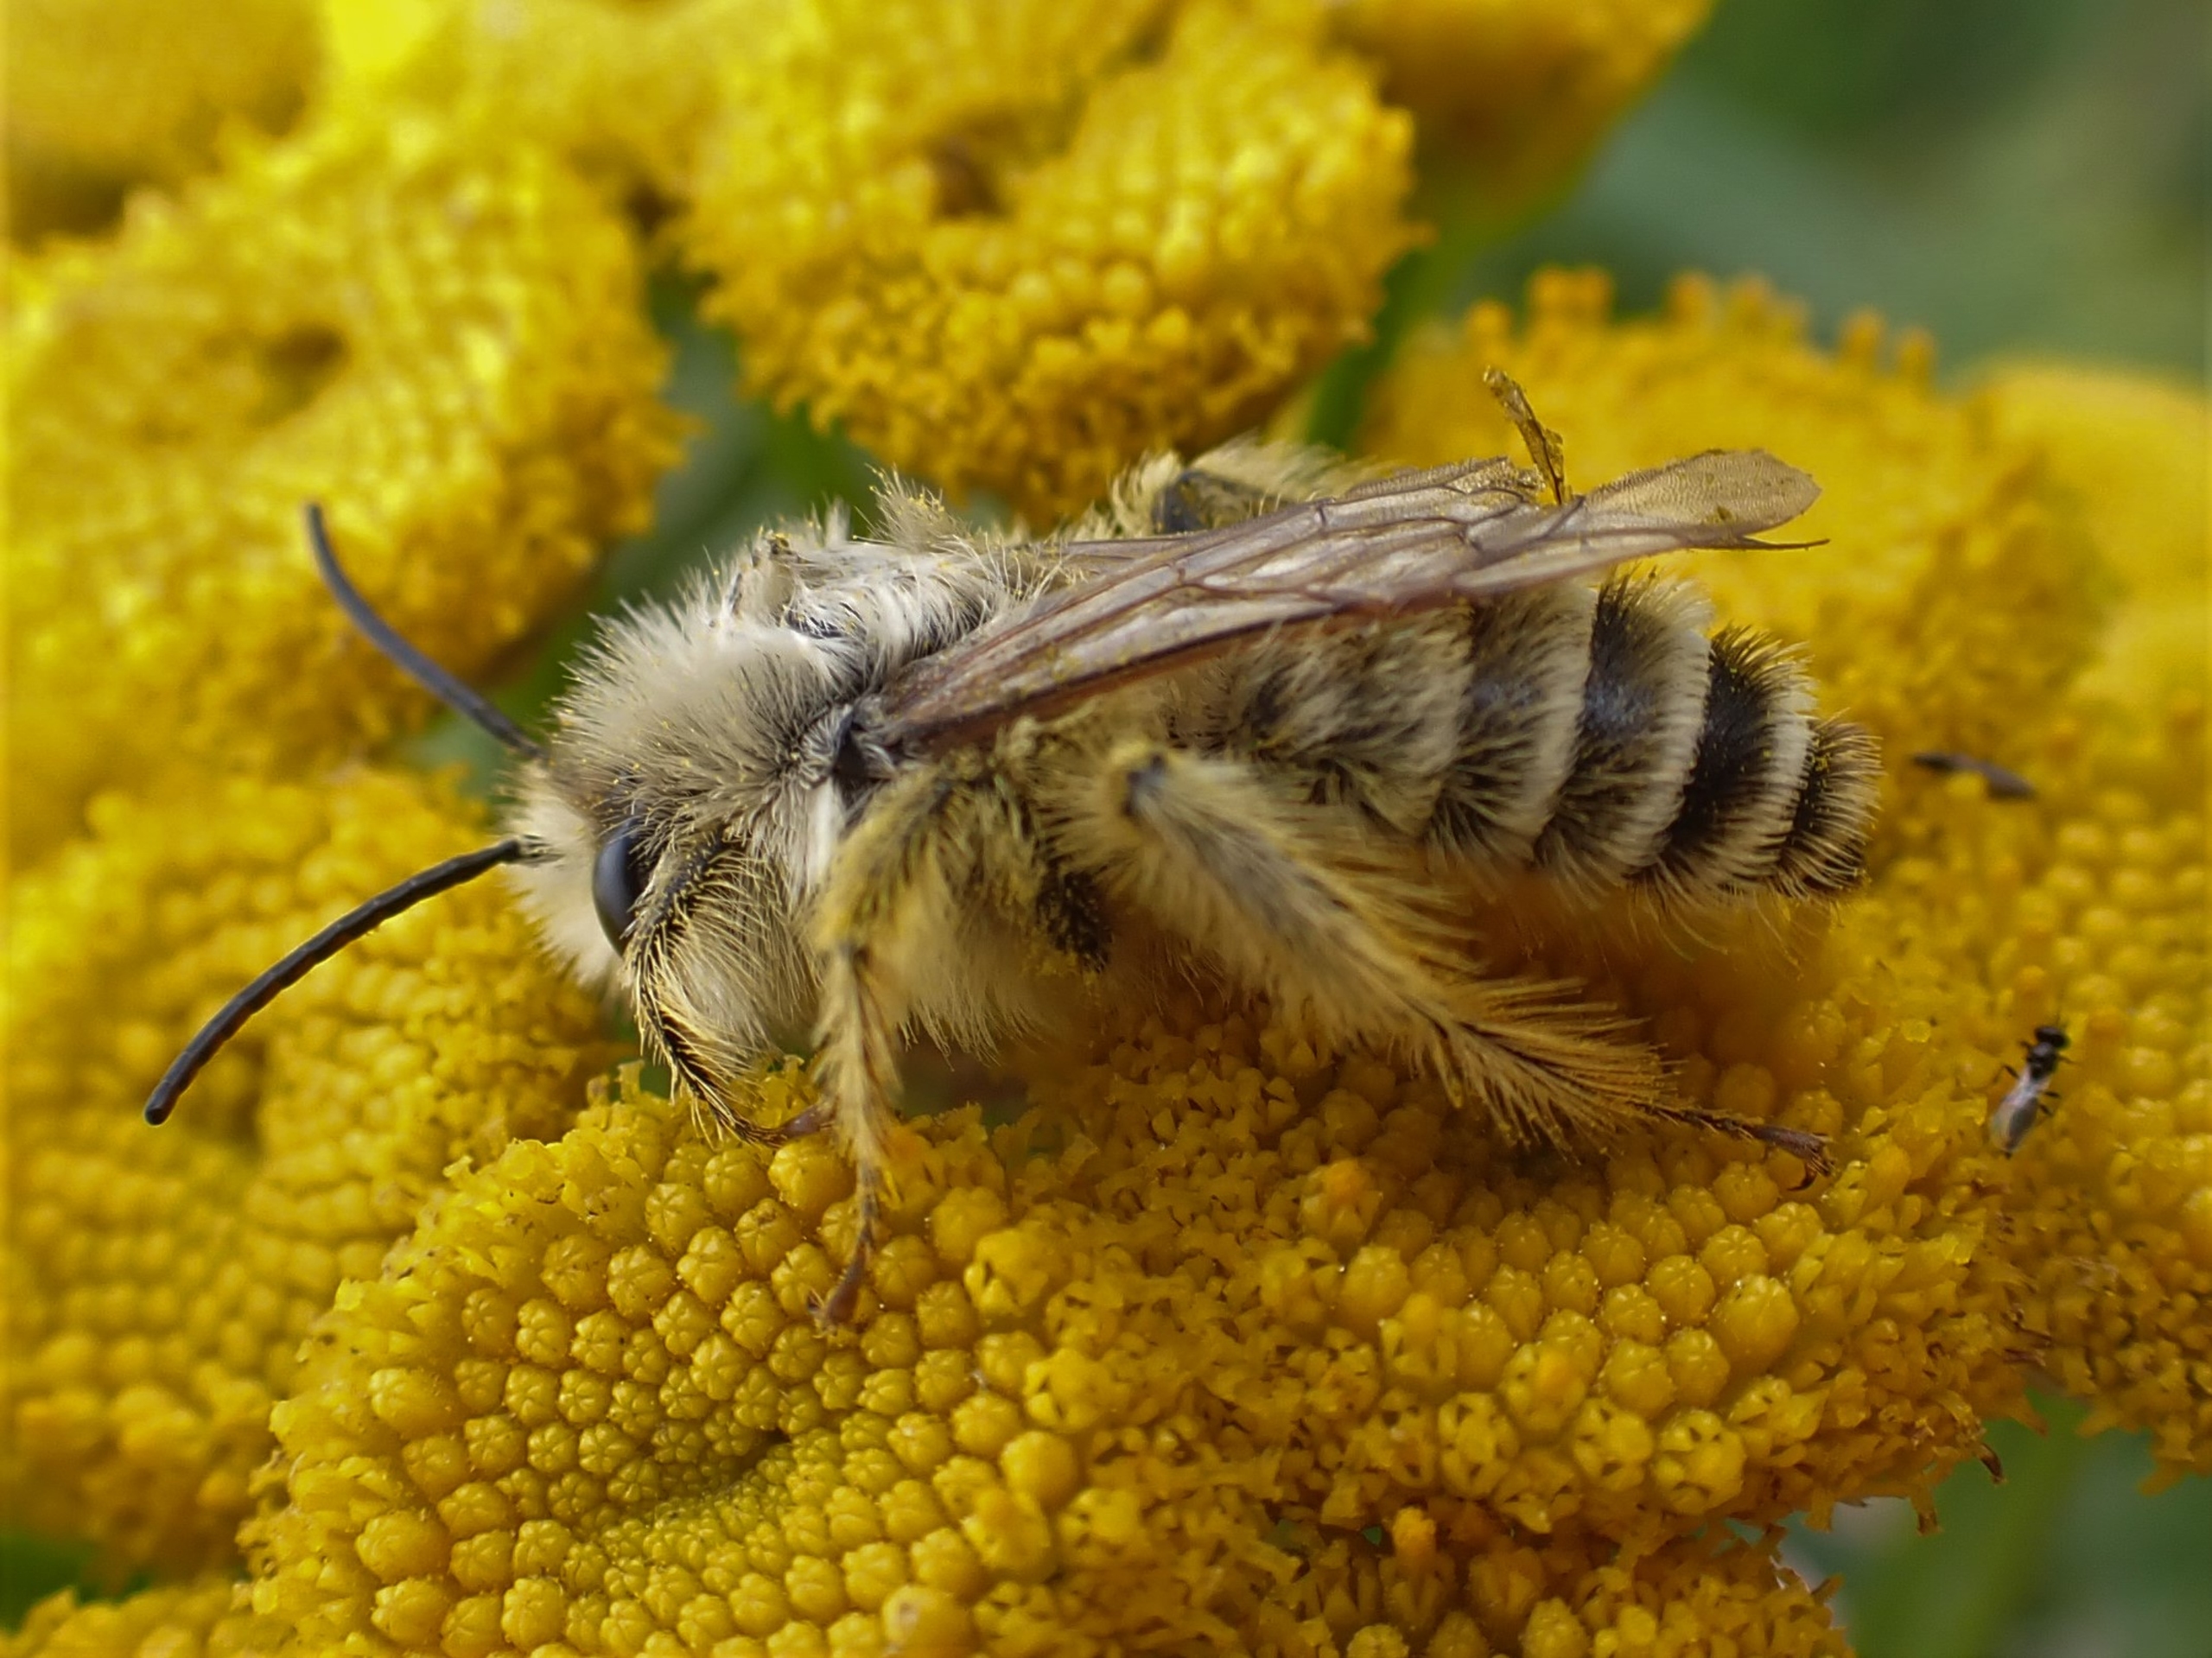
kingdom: Animalia
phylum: Arthropoda
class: Insecta
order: Hymenoptera
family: Melittidae
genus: Dasypoda
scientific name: Dasypoda hirtipes
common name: Pragtbuksebi
